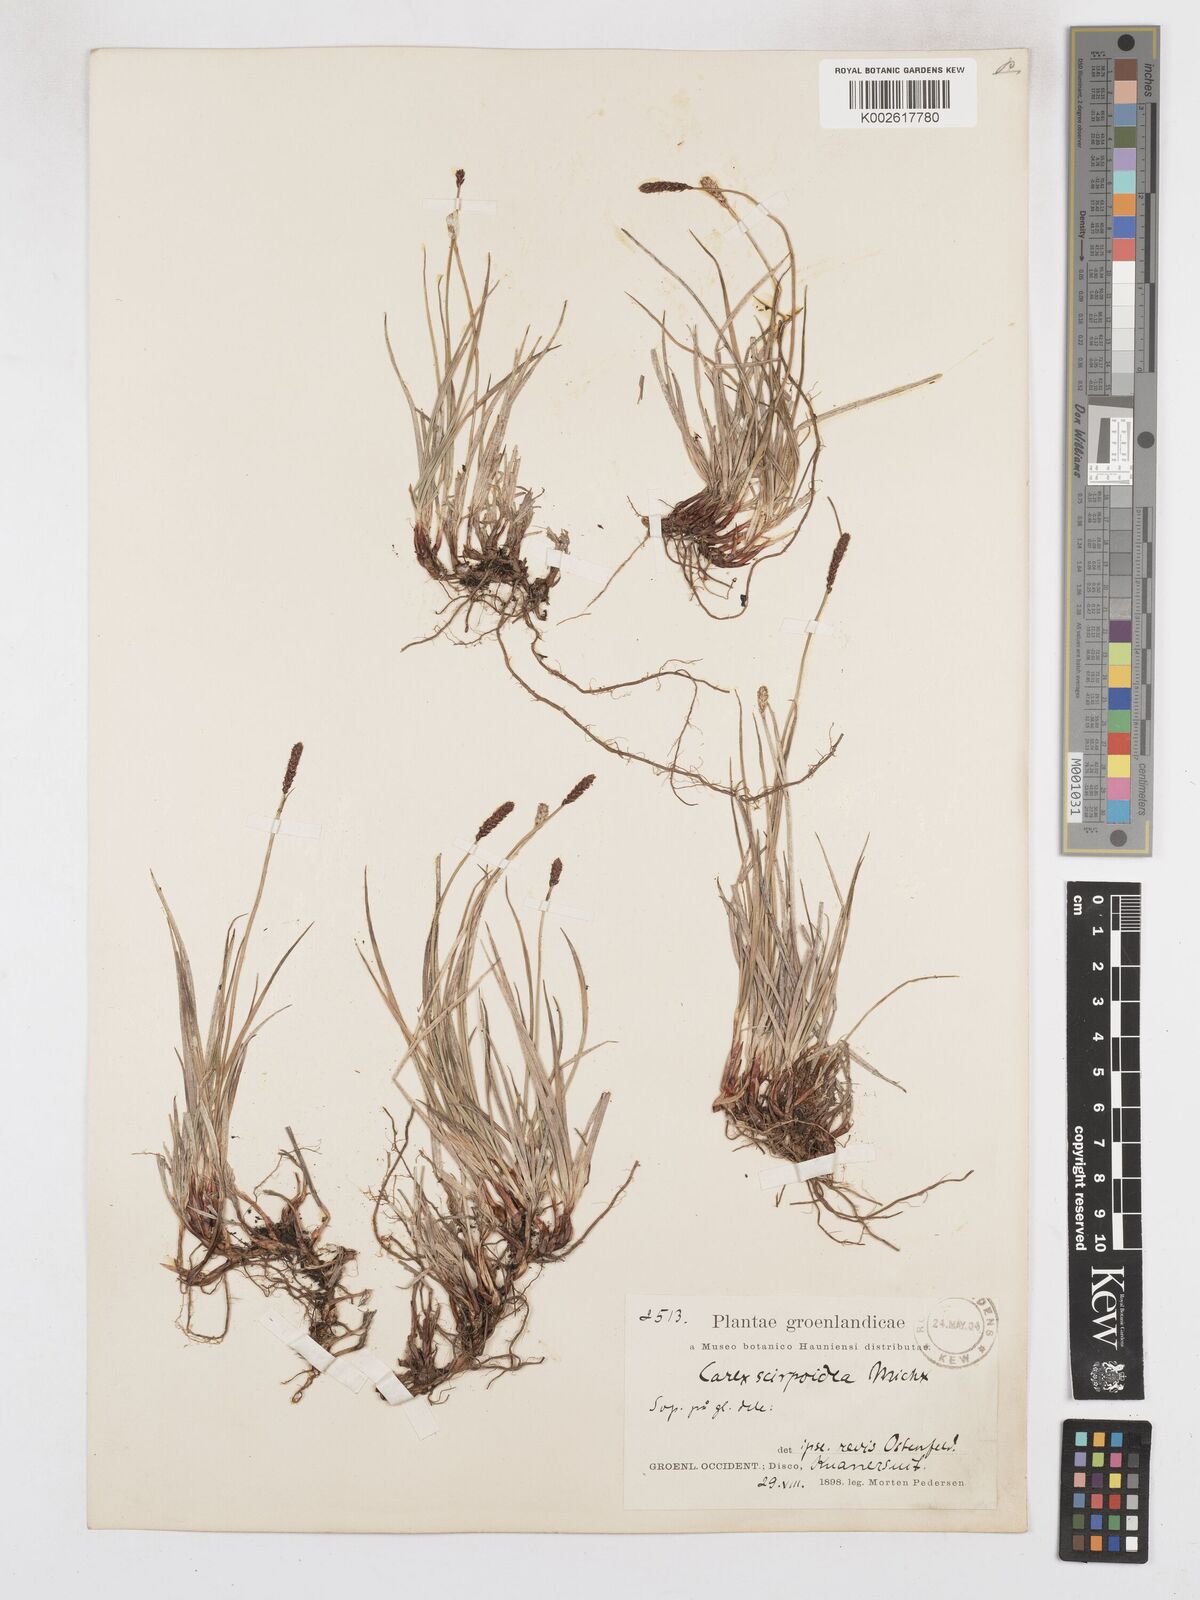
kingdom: Plantae
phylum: Tracheophyta
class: Liliopsida
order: Poales
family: Cyperaceae
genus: Carex
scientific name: Carex scirpoidea
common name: Canada single-spike sedge
